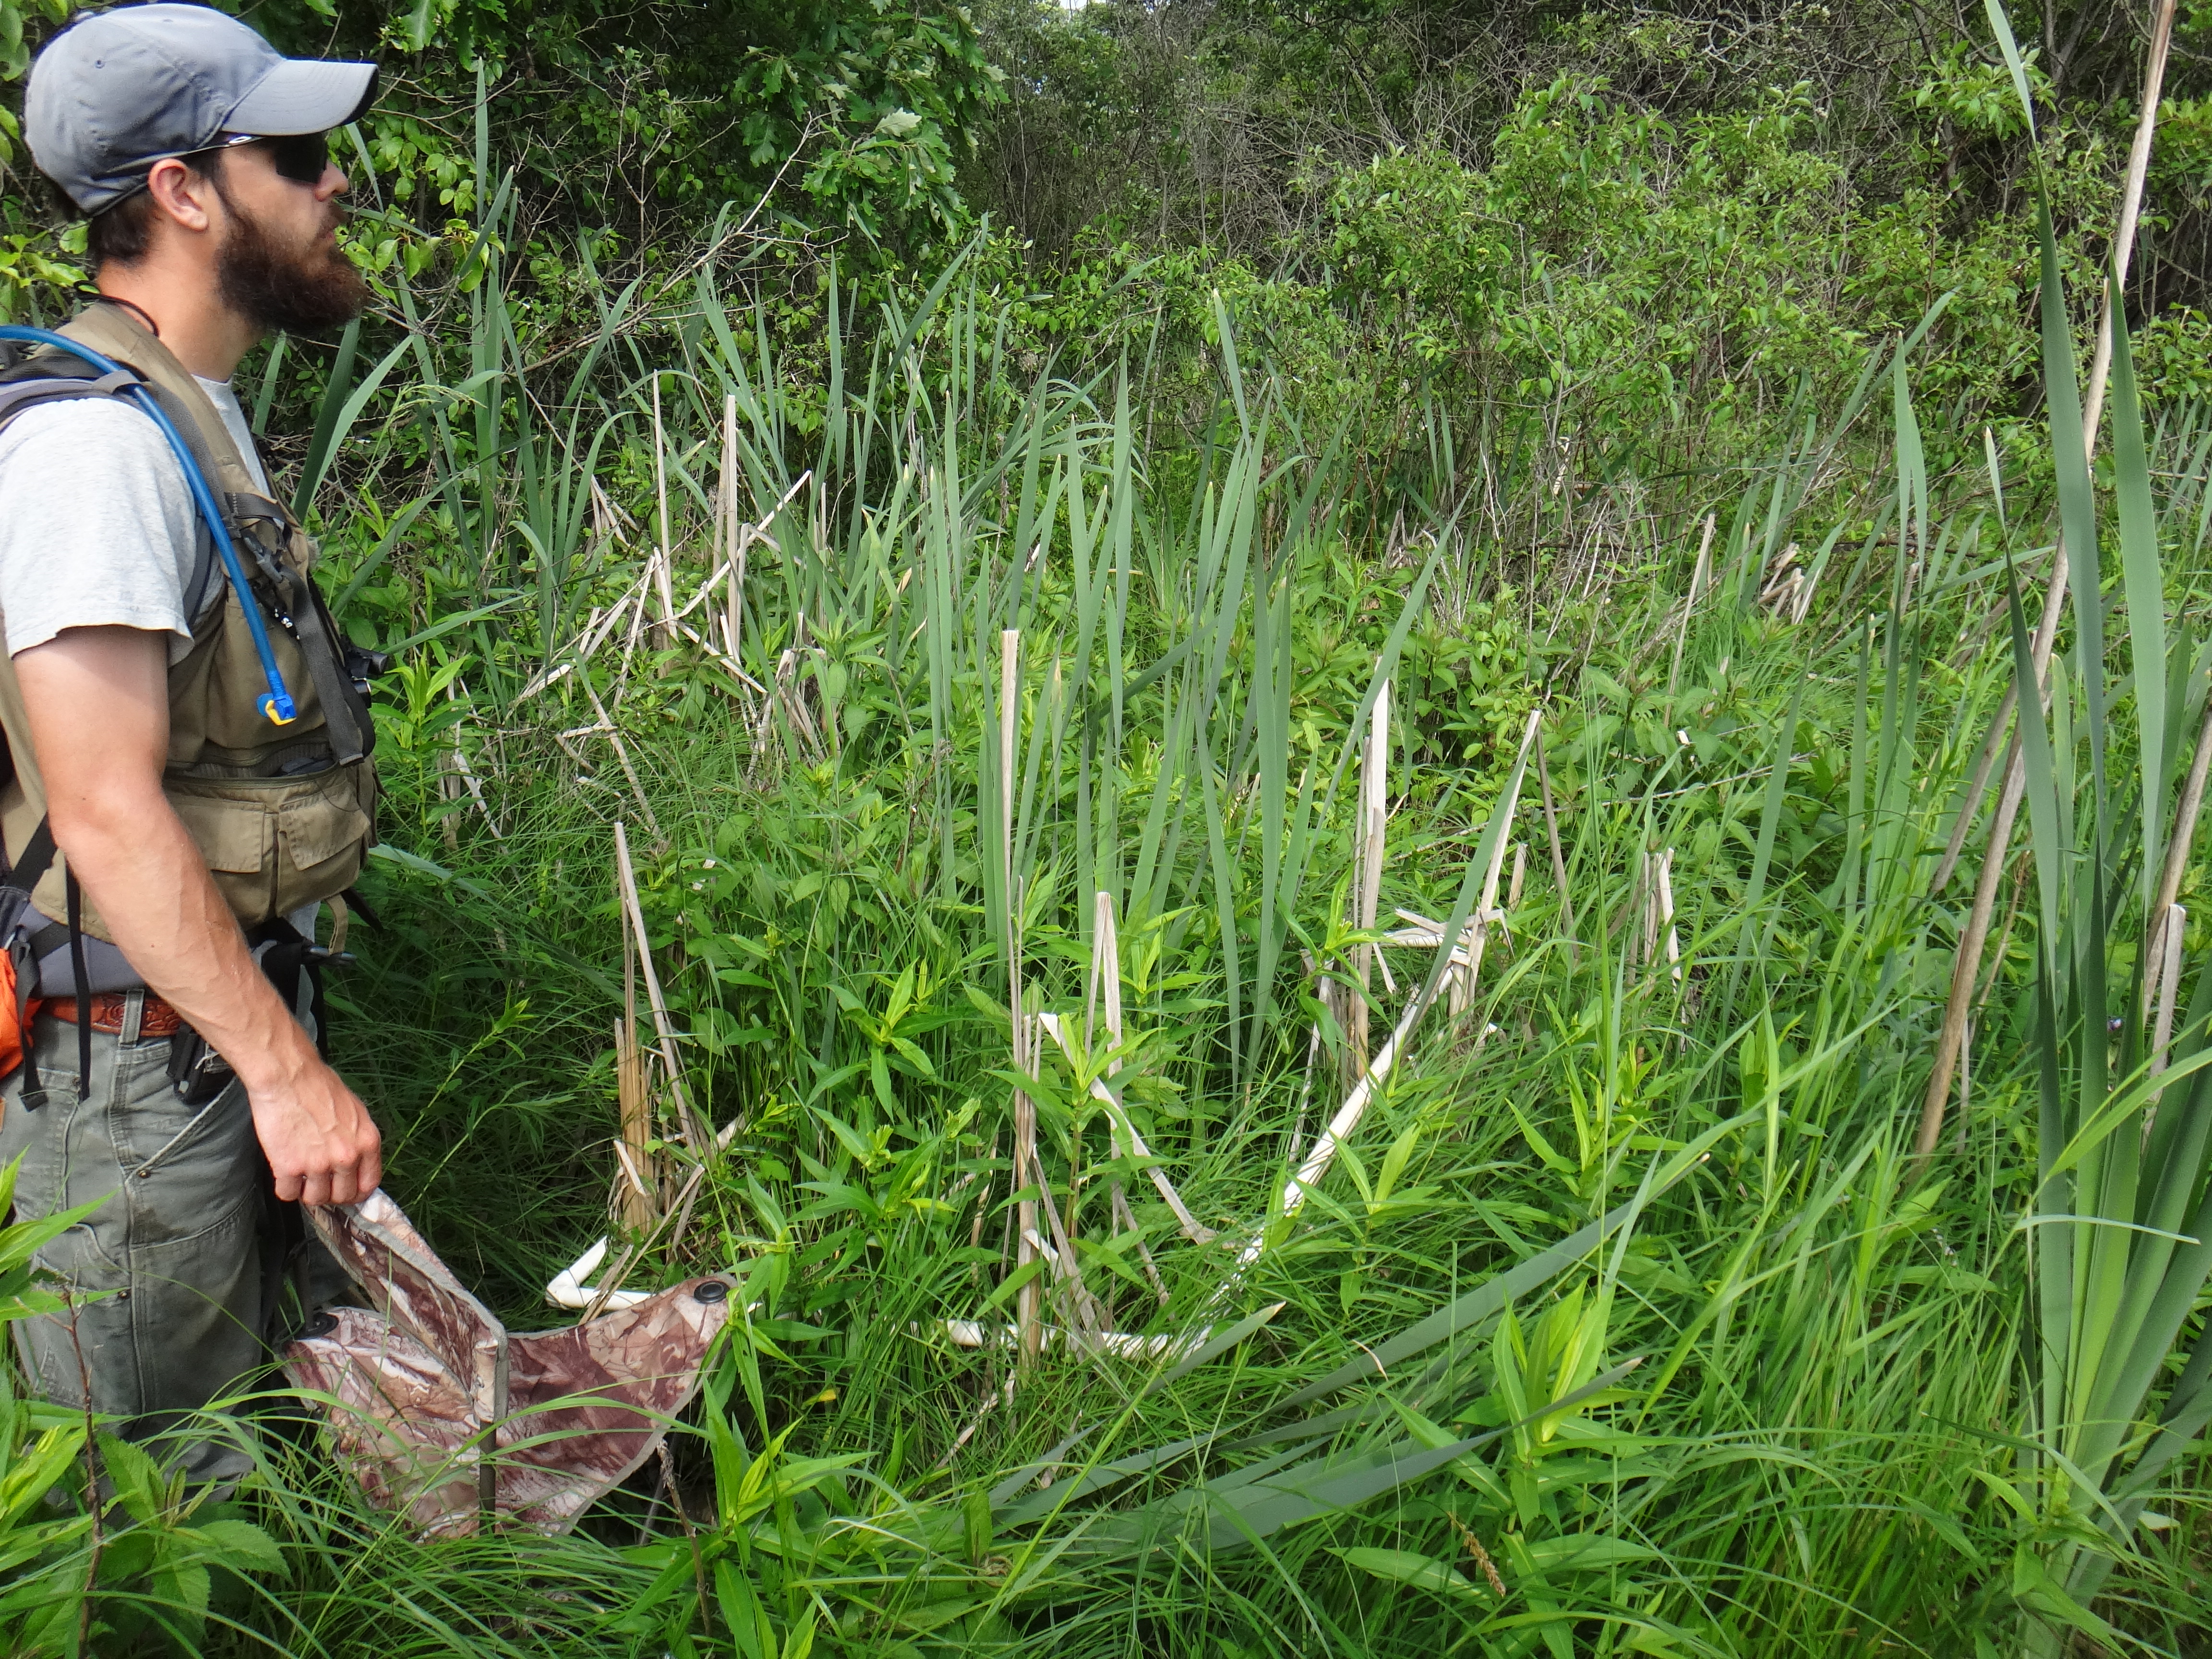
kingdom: Plantae
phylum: Tracheophyta
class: Magnoliopsida
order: Cornales
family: Cornaceae
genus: Cornus
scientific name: Cornus sericea
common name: Red-osier dogwood
